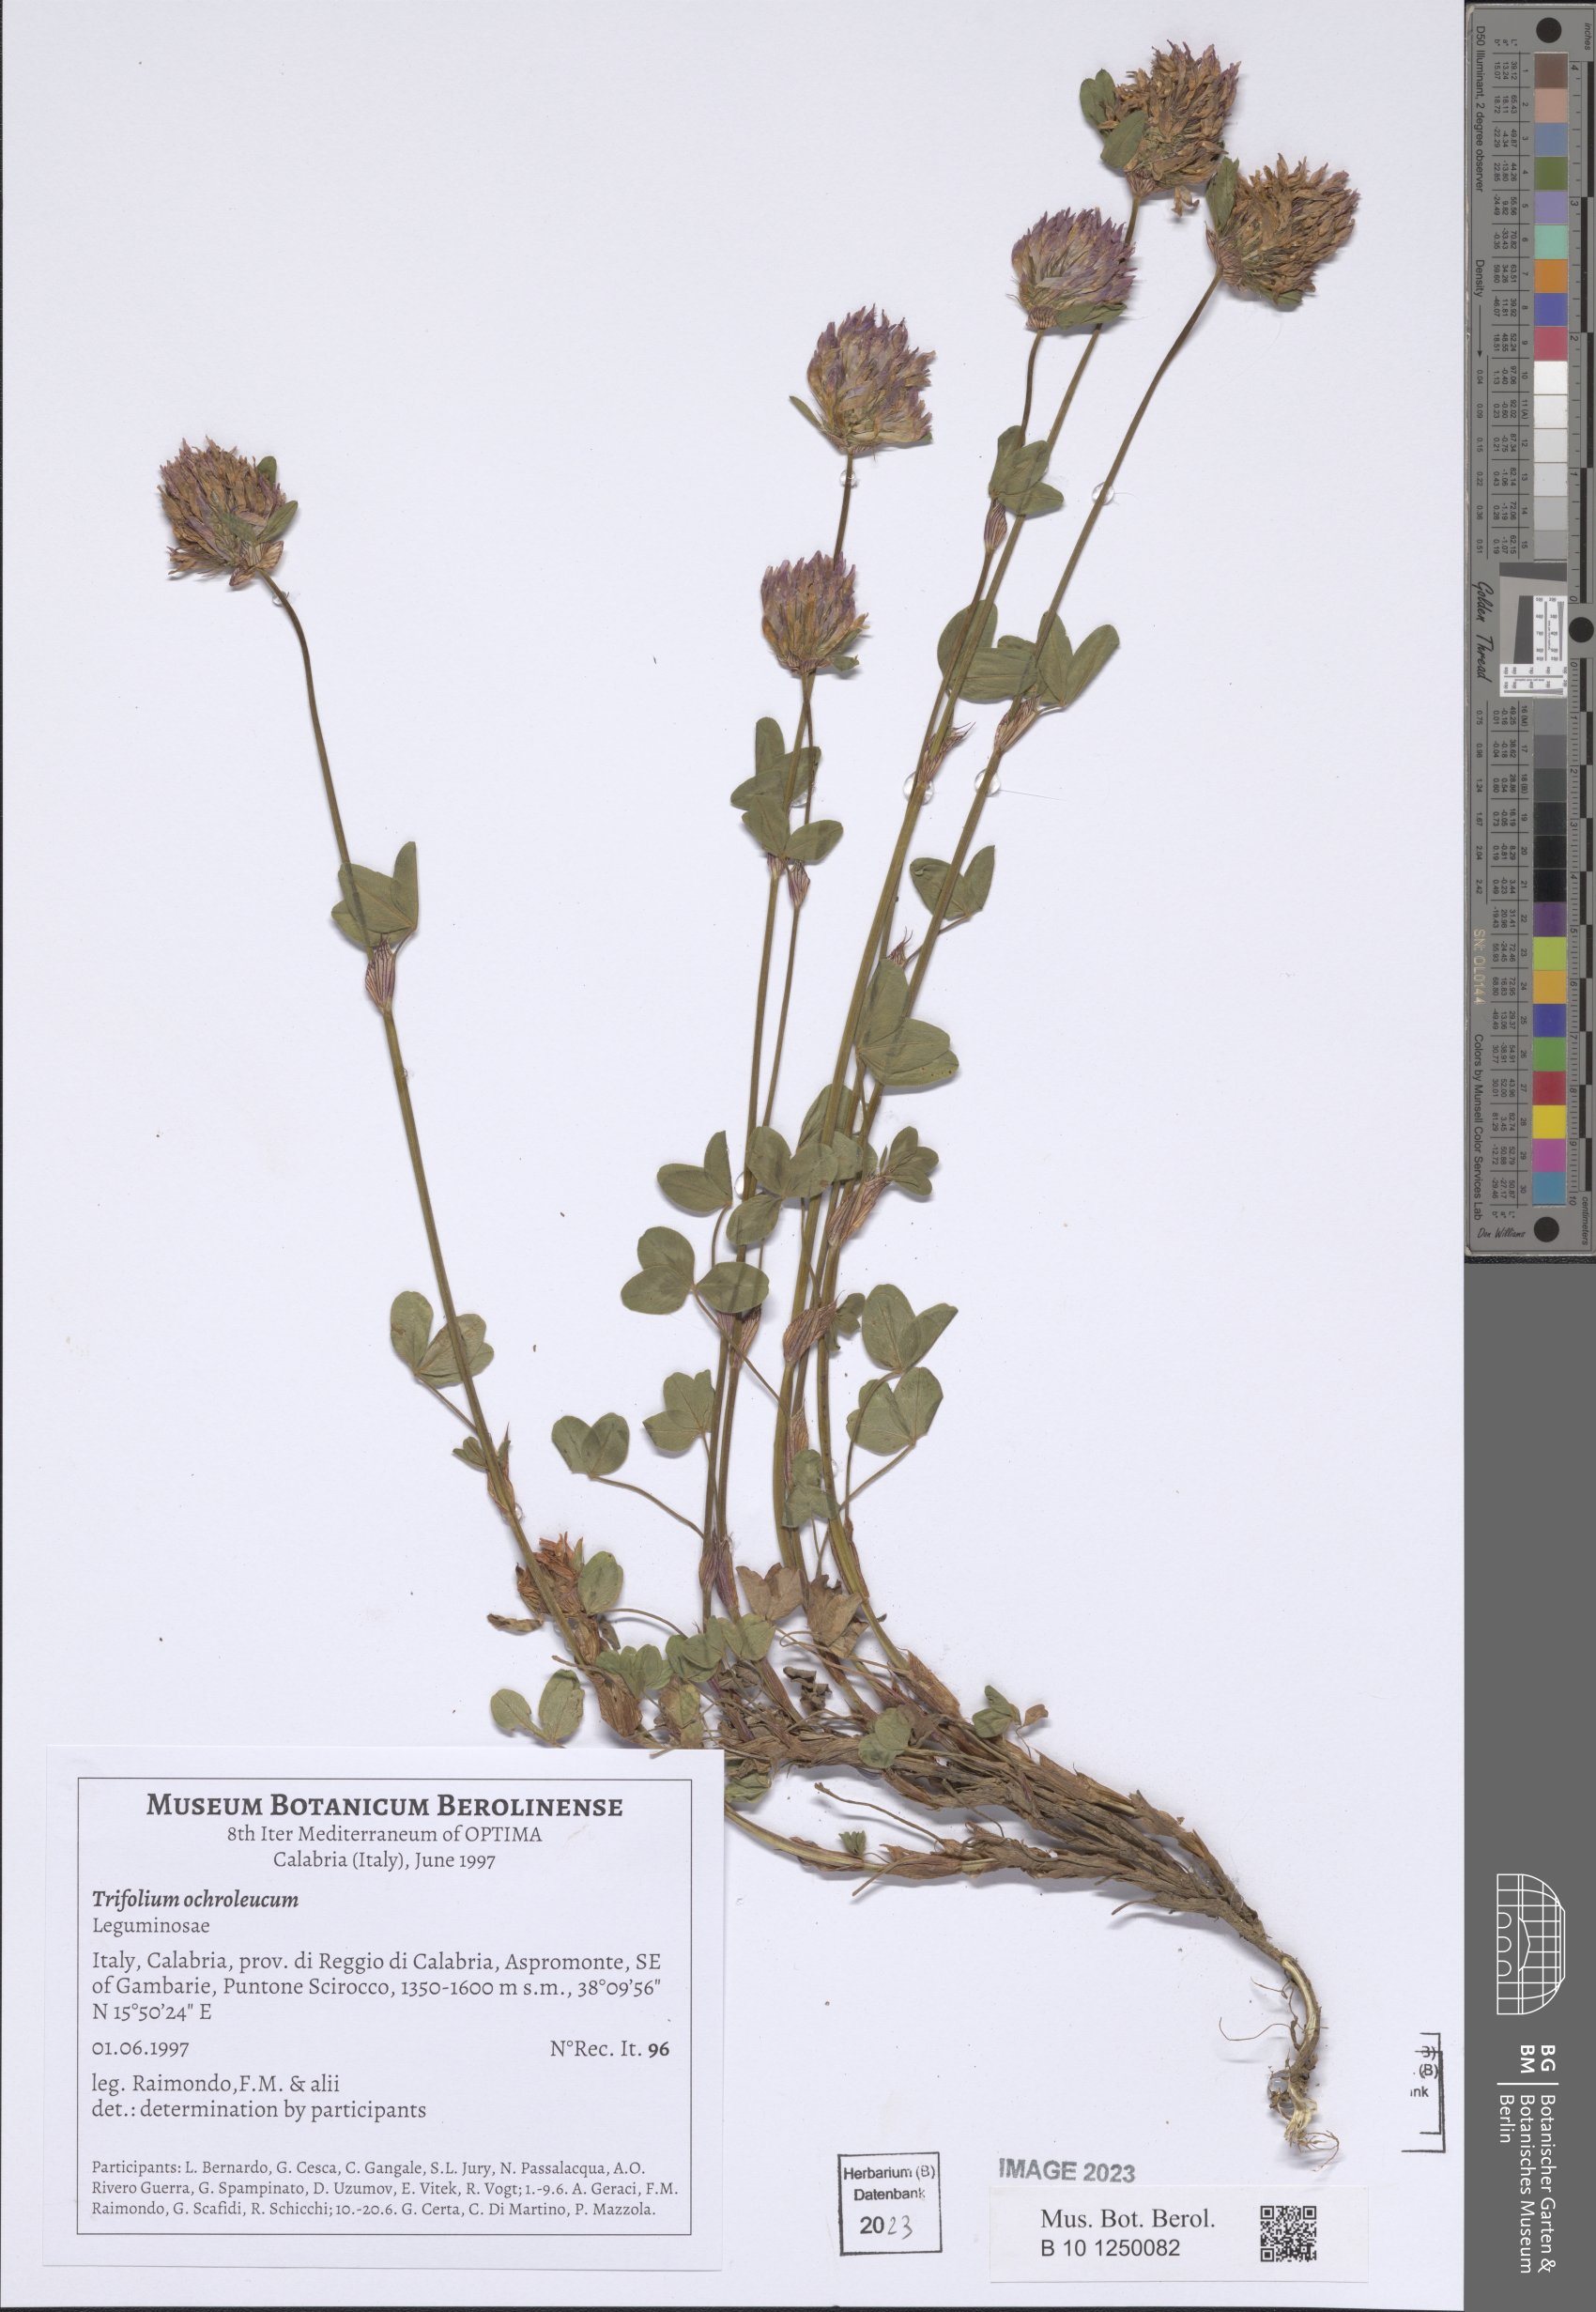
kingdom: Plantae
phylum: Tracheophyta
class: Magnoliopsida
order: Fabales
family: Fabaceae
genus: Trifolium
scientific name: Trifolium ochroleucon
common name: Sulphur clover
